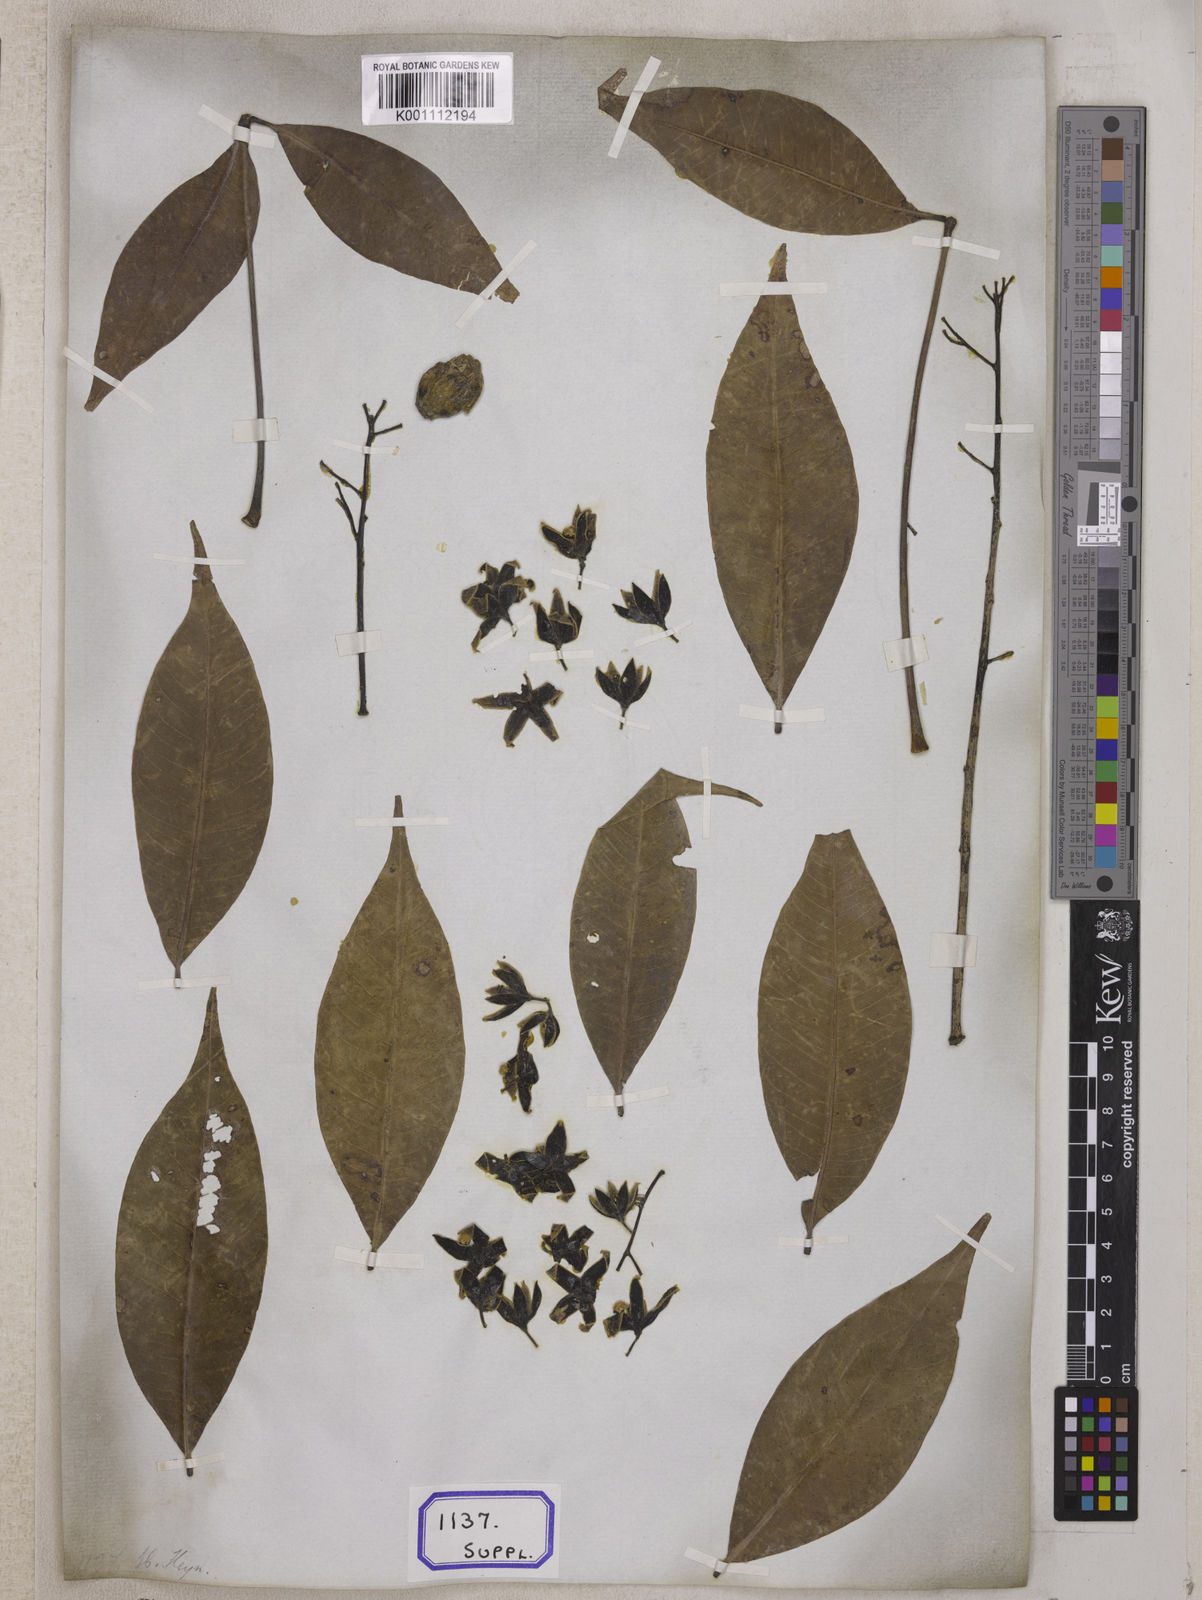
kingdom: Plantae
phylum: Tracheophyta
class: Magnoliopsida
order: Malvales
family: Malvaceae
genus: Sterculia
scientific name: Sterculia foetida
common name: Hazel sterculia
